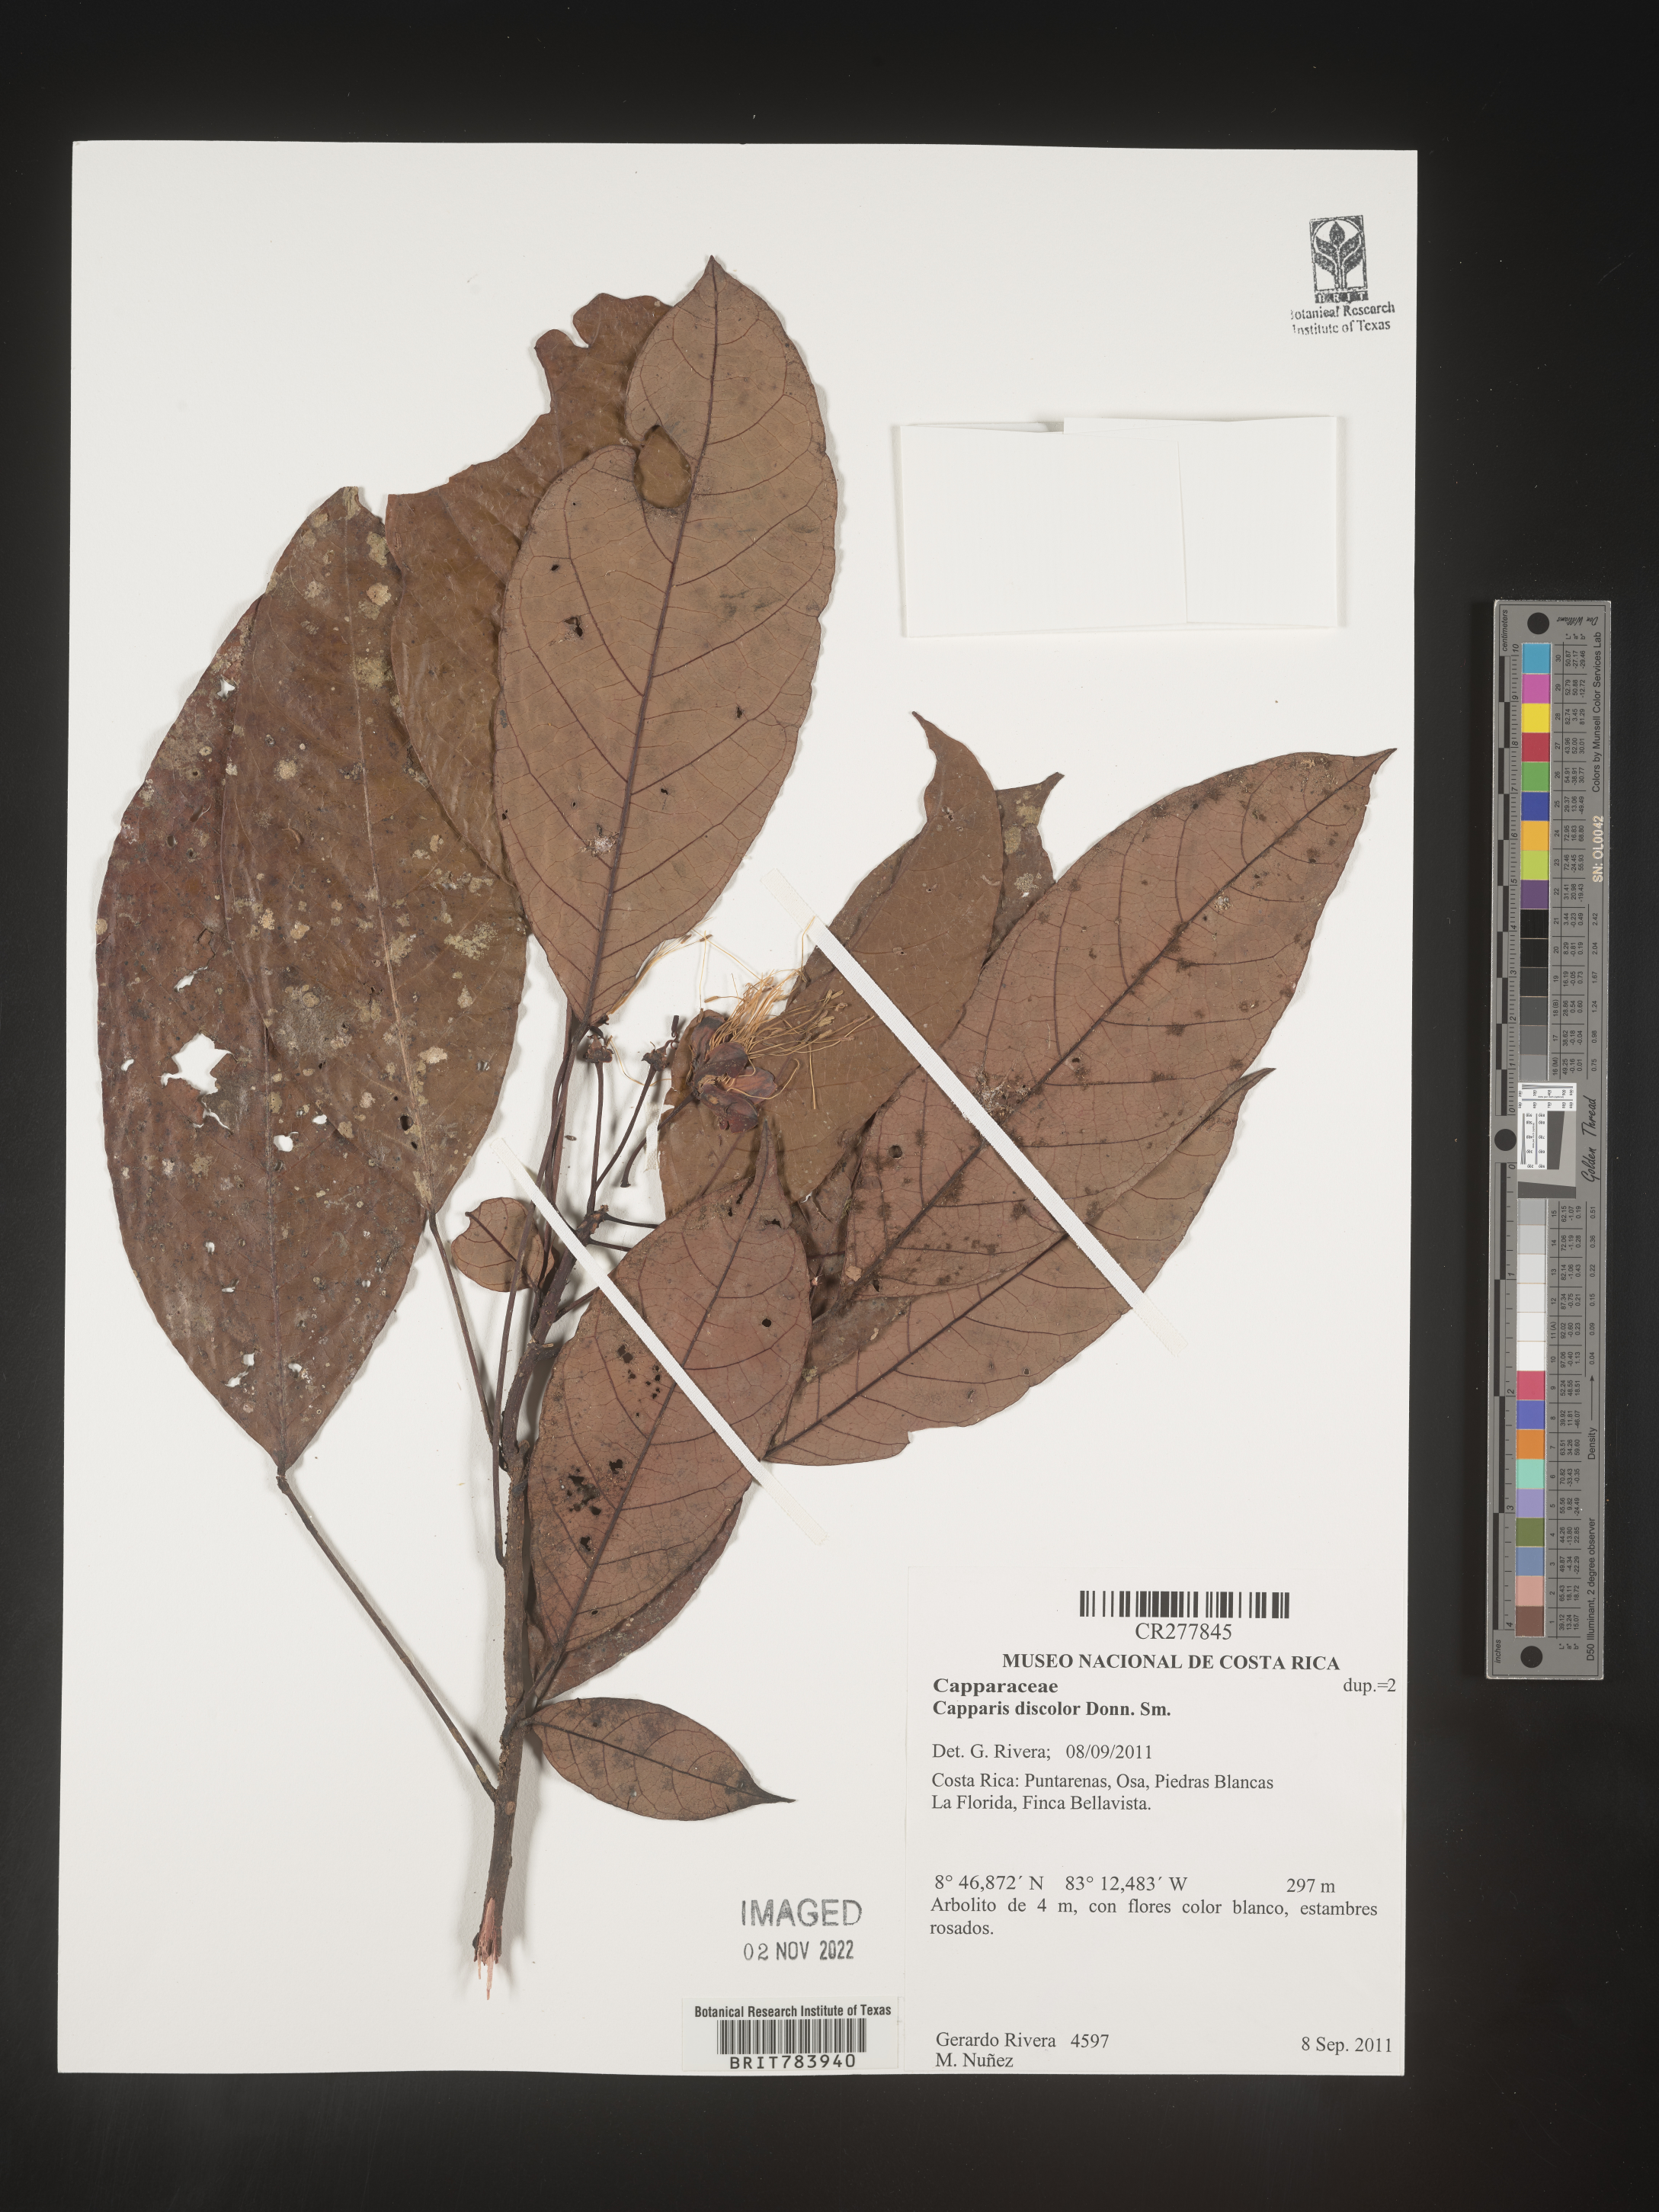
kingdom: Plantae
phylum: Tracheophyta
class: Magnoliopsida
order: Brassicales
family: Capparaceae
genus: Capparis
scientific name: Capparis
